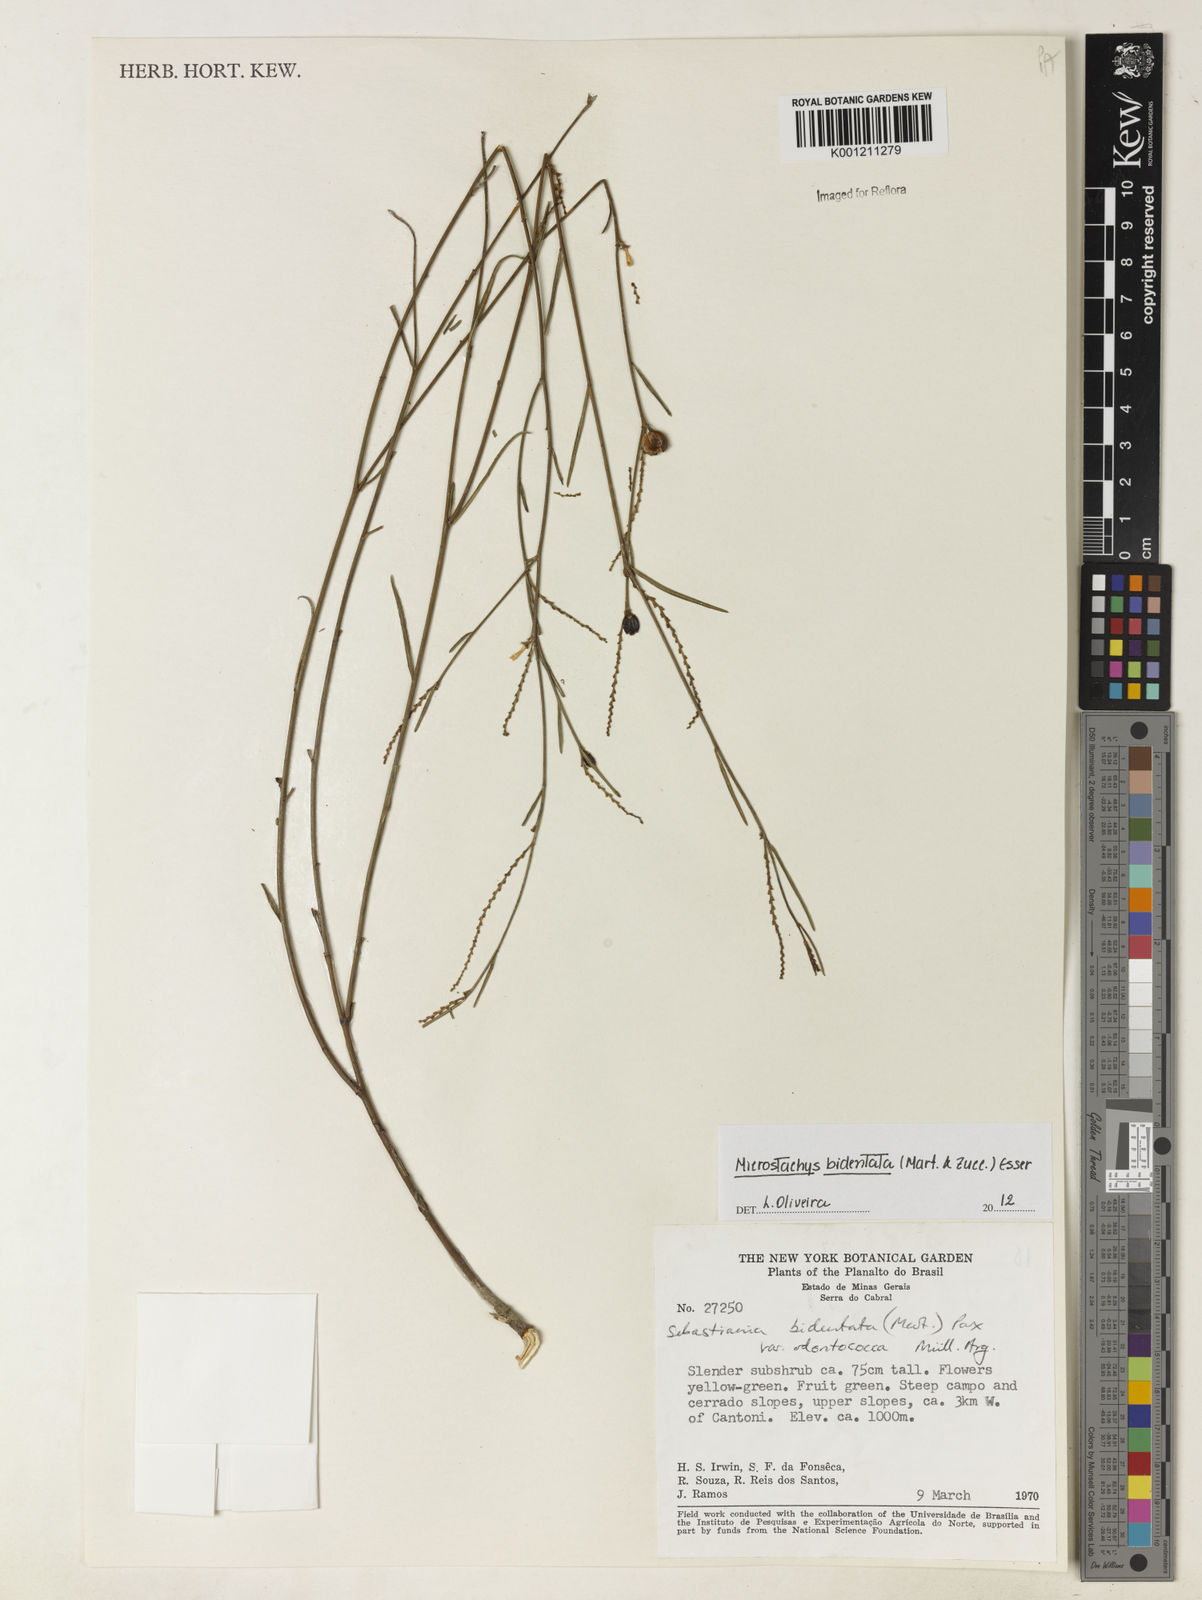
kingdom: Plantae
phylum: Tracheophyta
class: Magnoliopsida
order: Malpighiales
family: Euphorbiaceae
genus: Microstachys
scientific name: Microstachys bidentata
